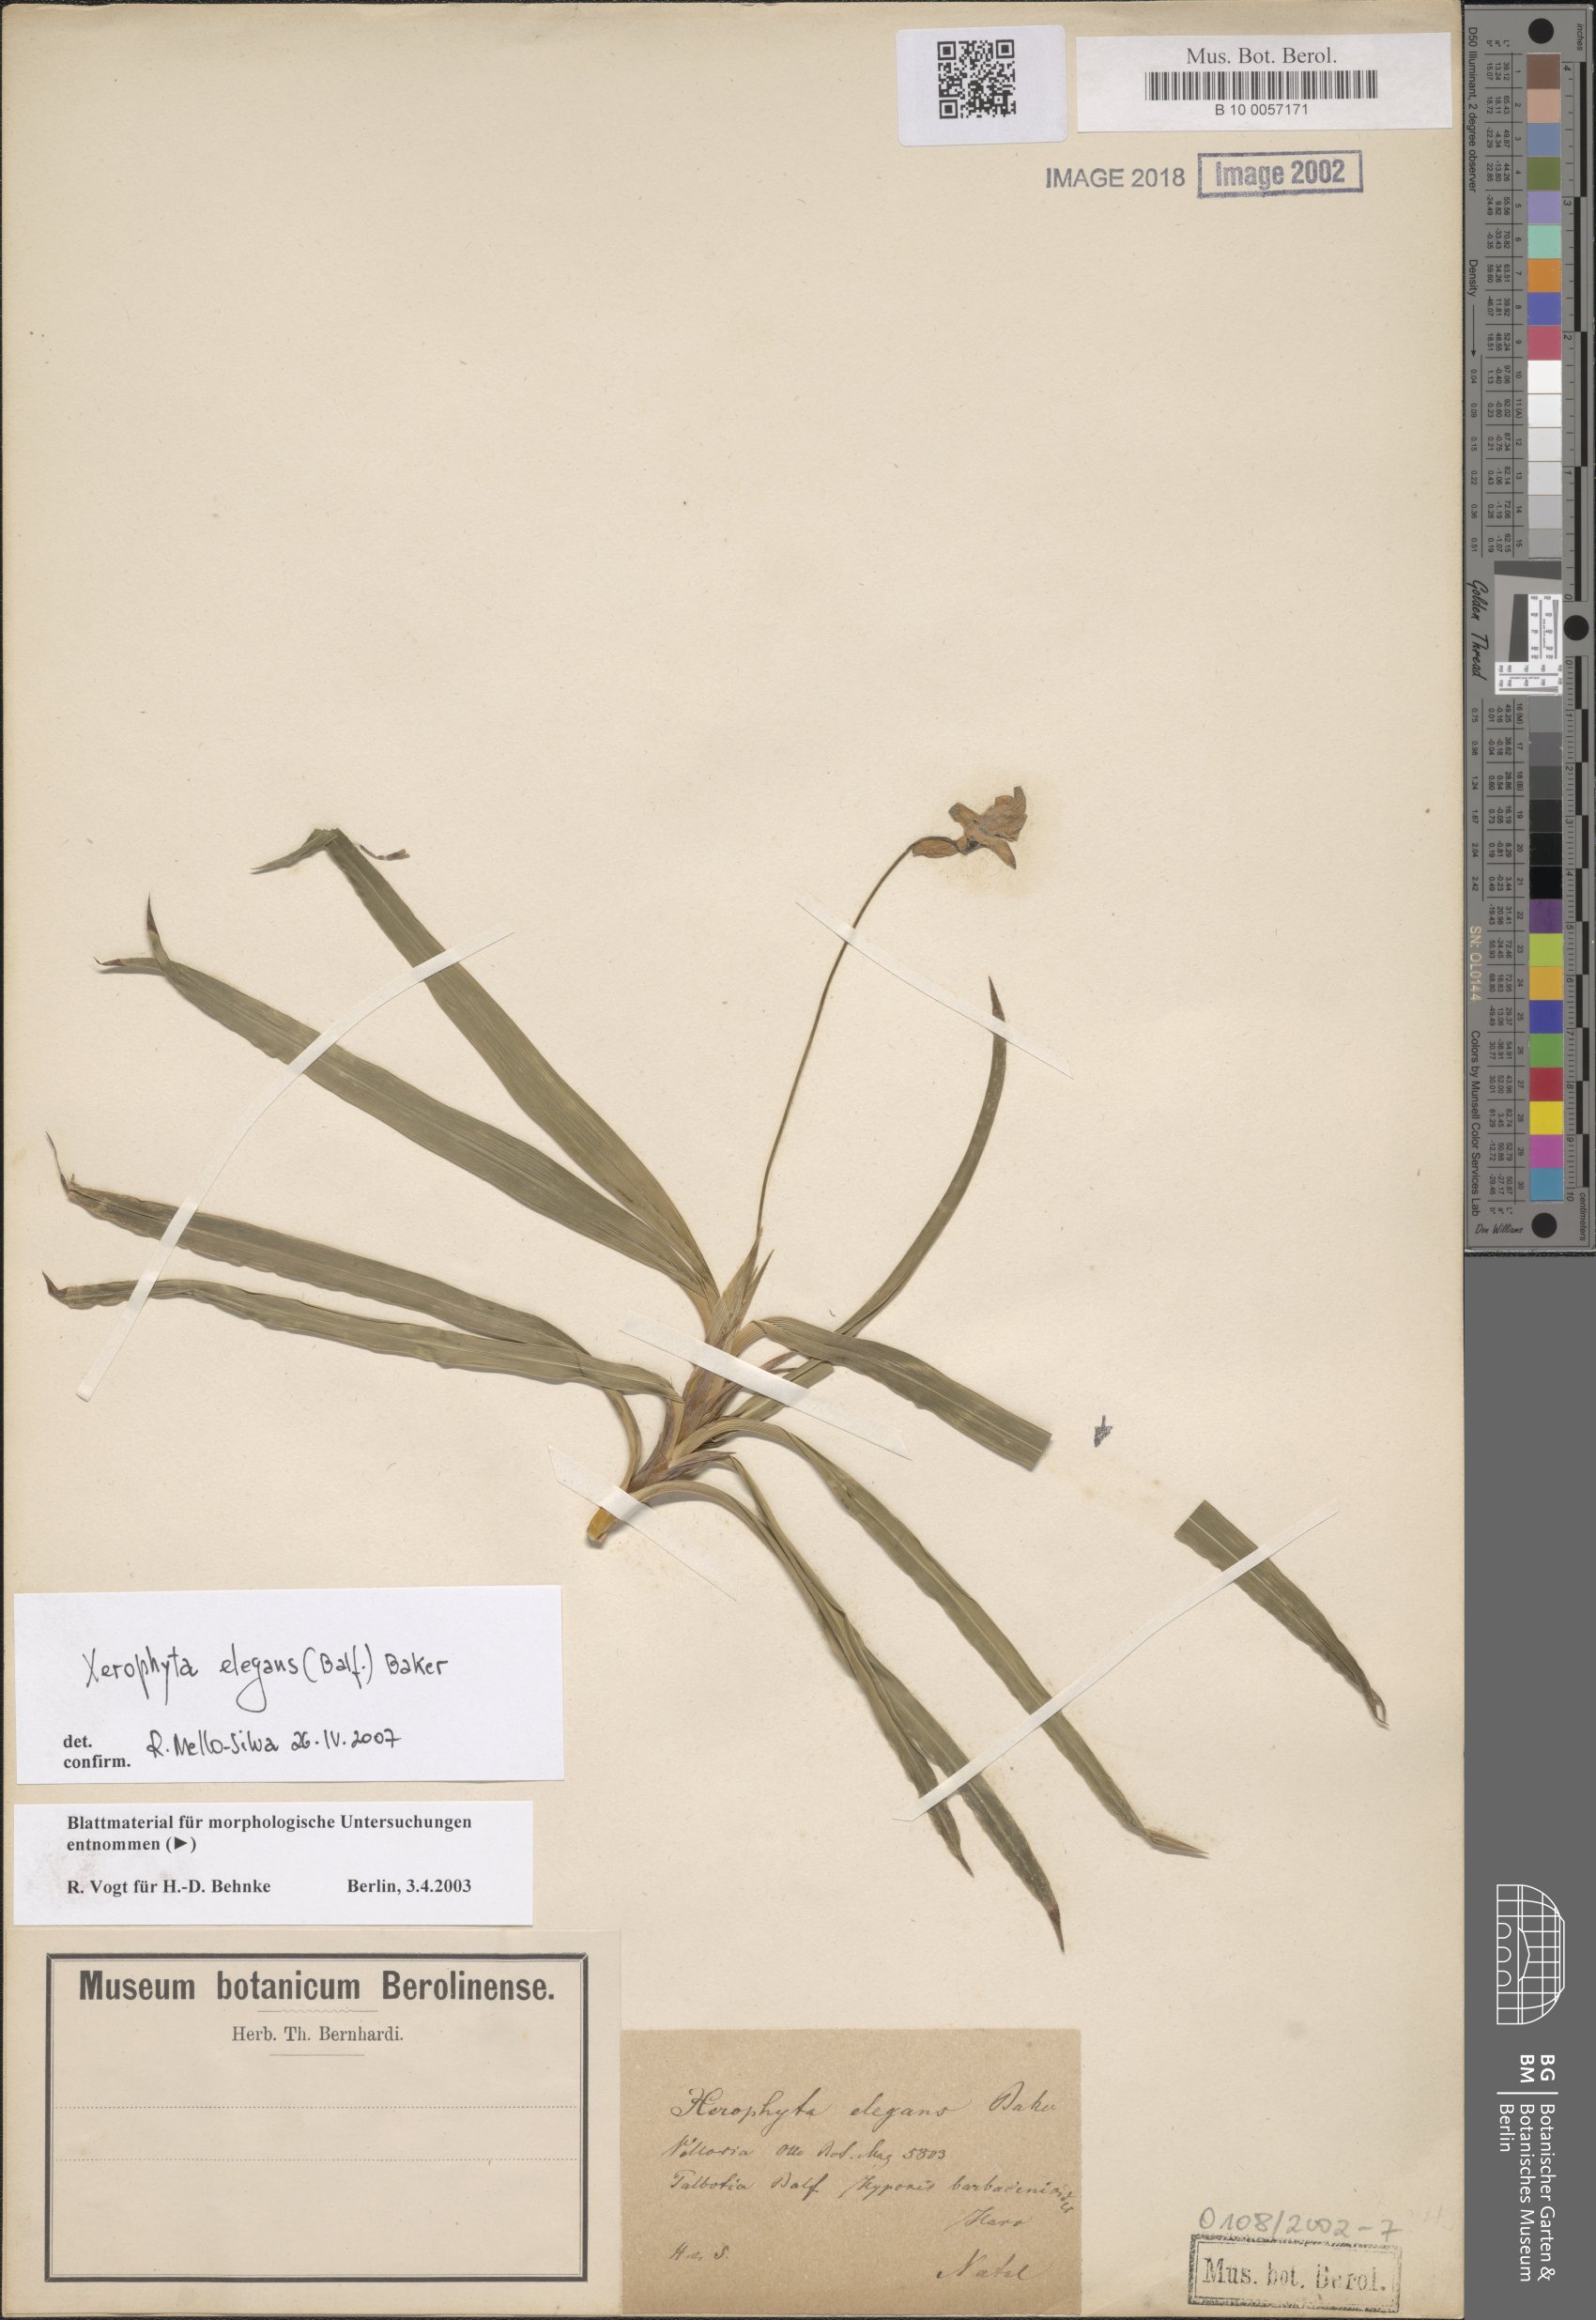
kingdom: Plantae
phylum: Tracheophyta
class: Liliopsida
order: Pandanales
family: Velloziaceae
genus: Xerophyta
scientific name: Xerophyta elegans
